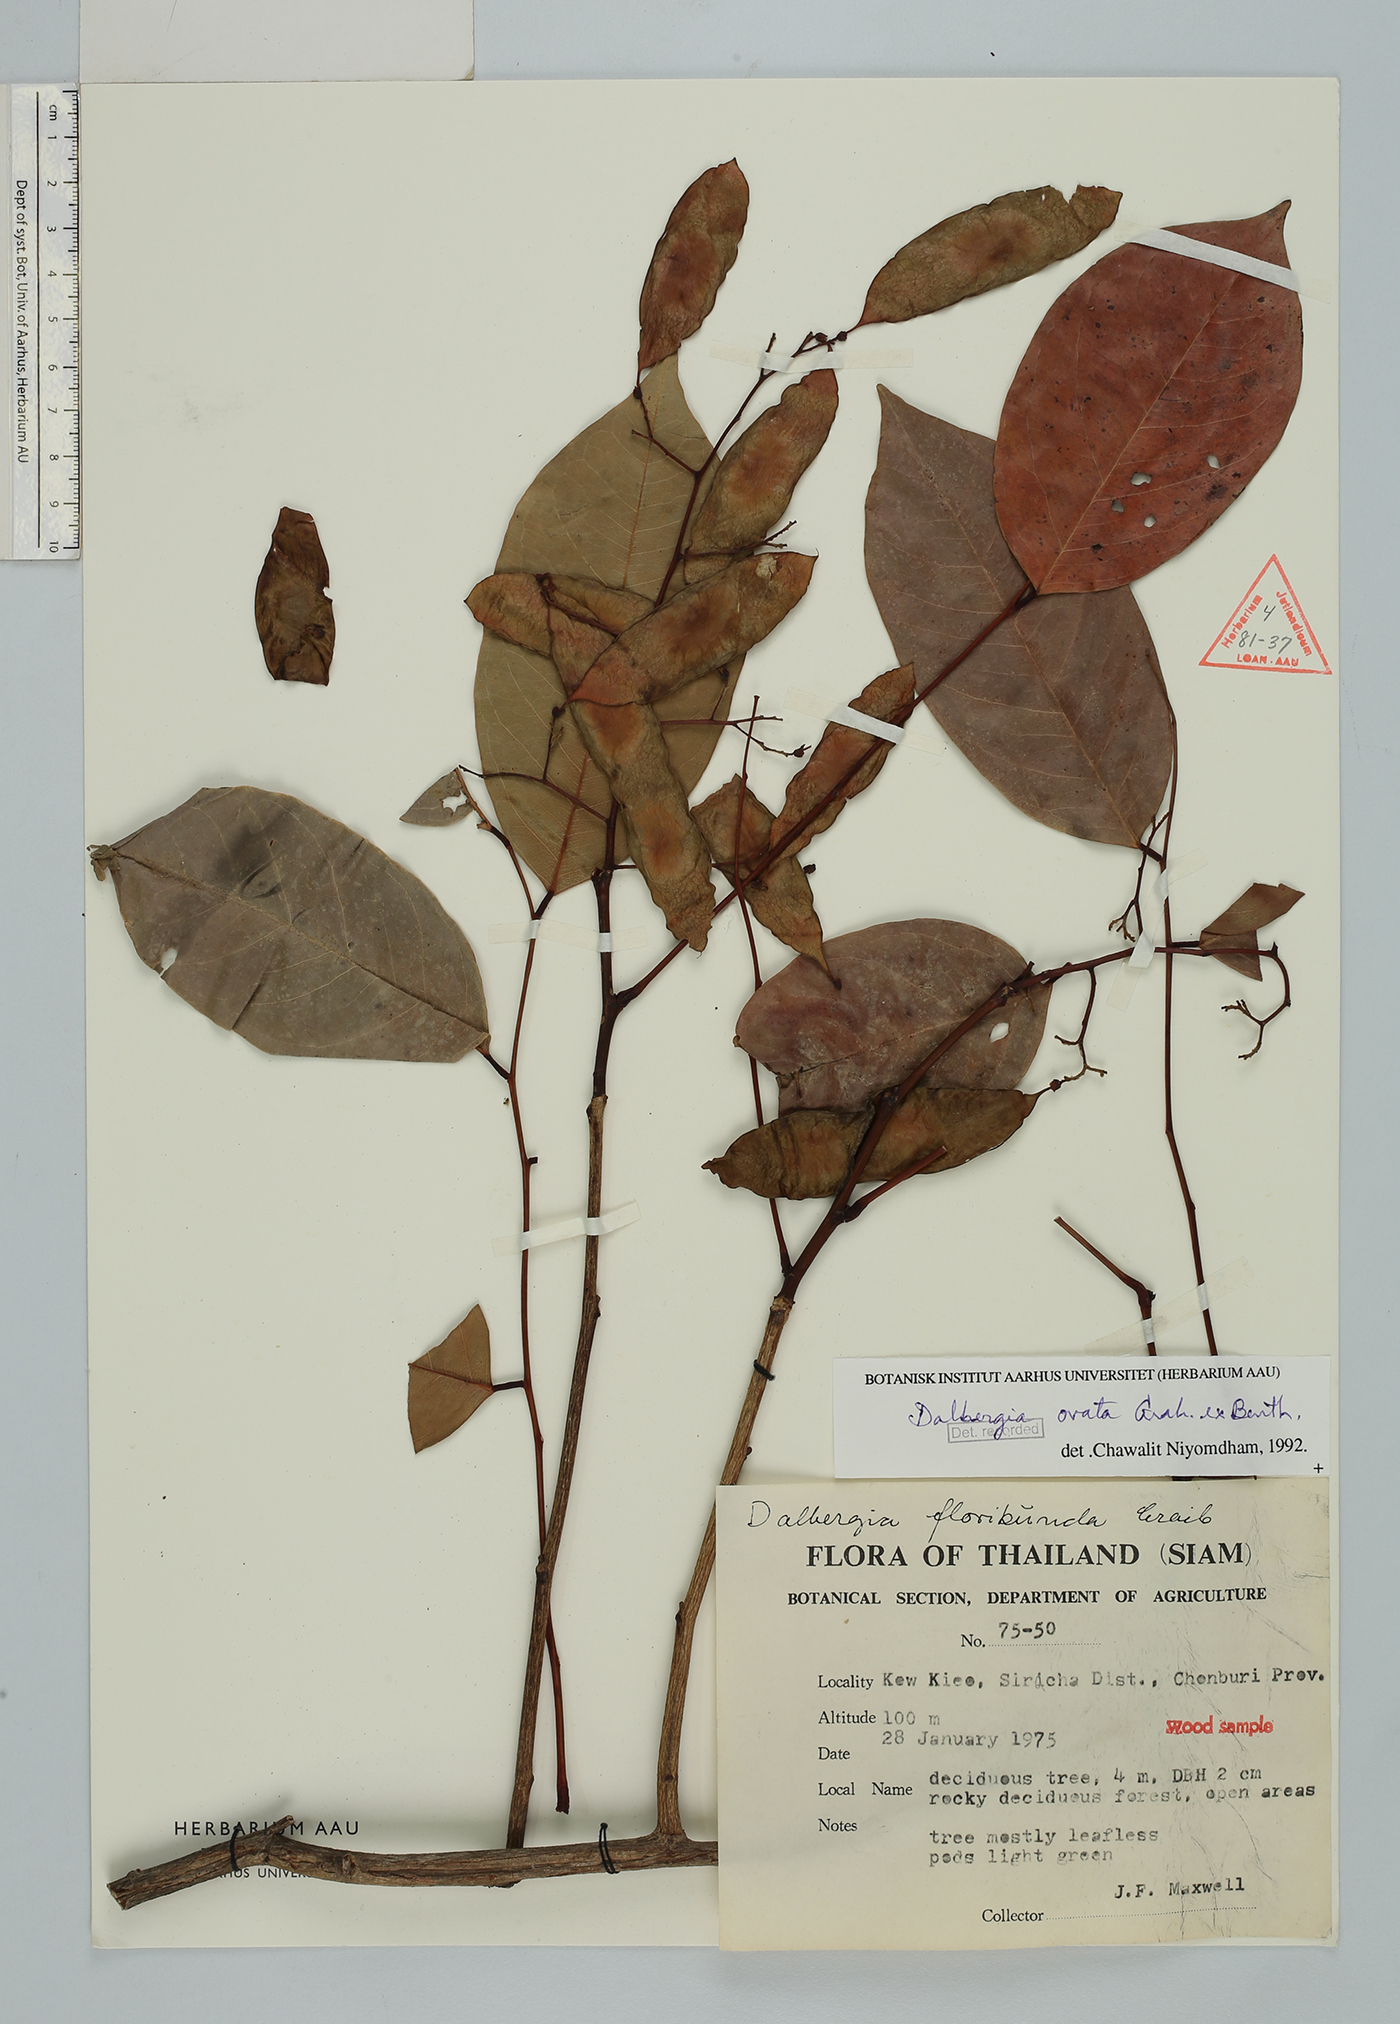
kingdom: Plantae
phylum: Tracheophyta
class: Magnoliopsida
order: Fabales
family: Fabaceae
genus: Dalbergia
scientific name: Dalbergia ovata
